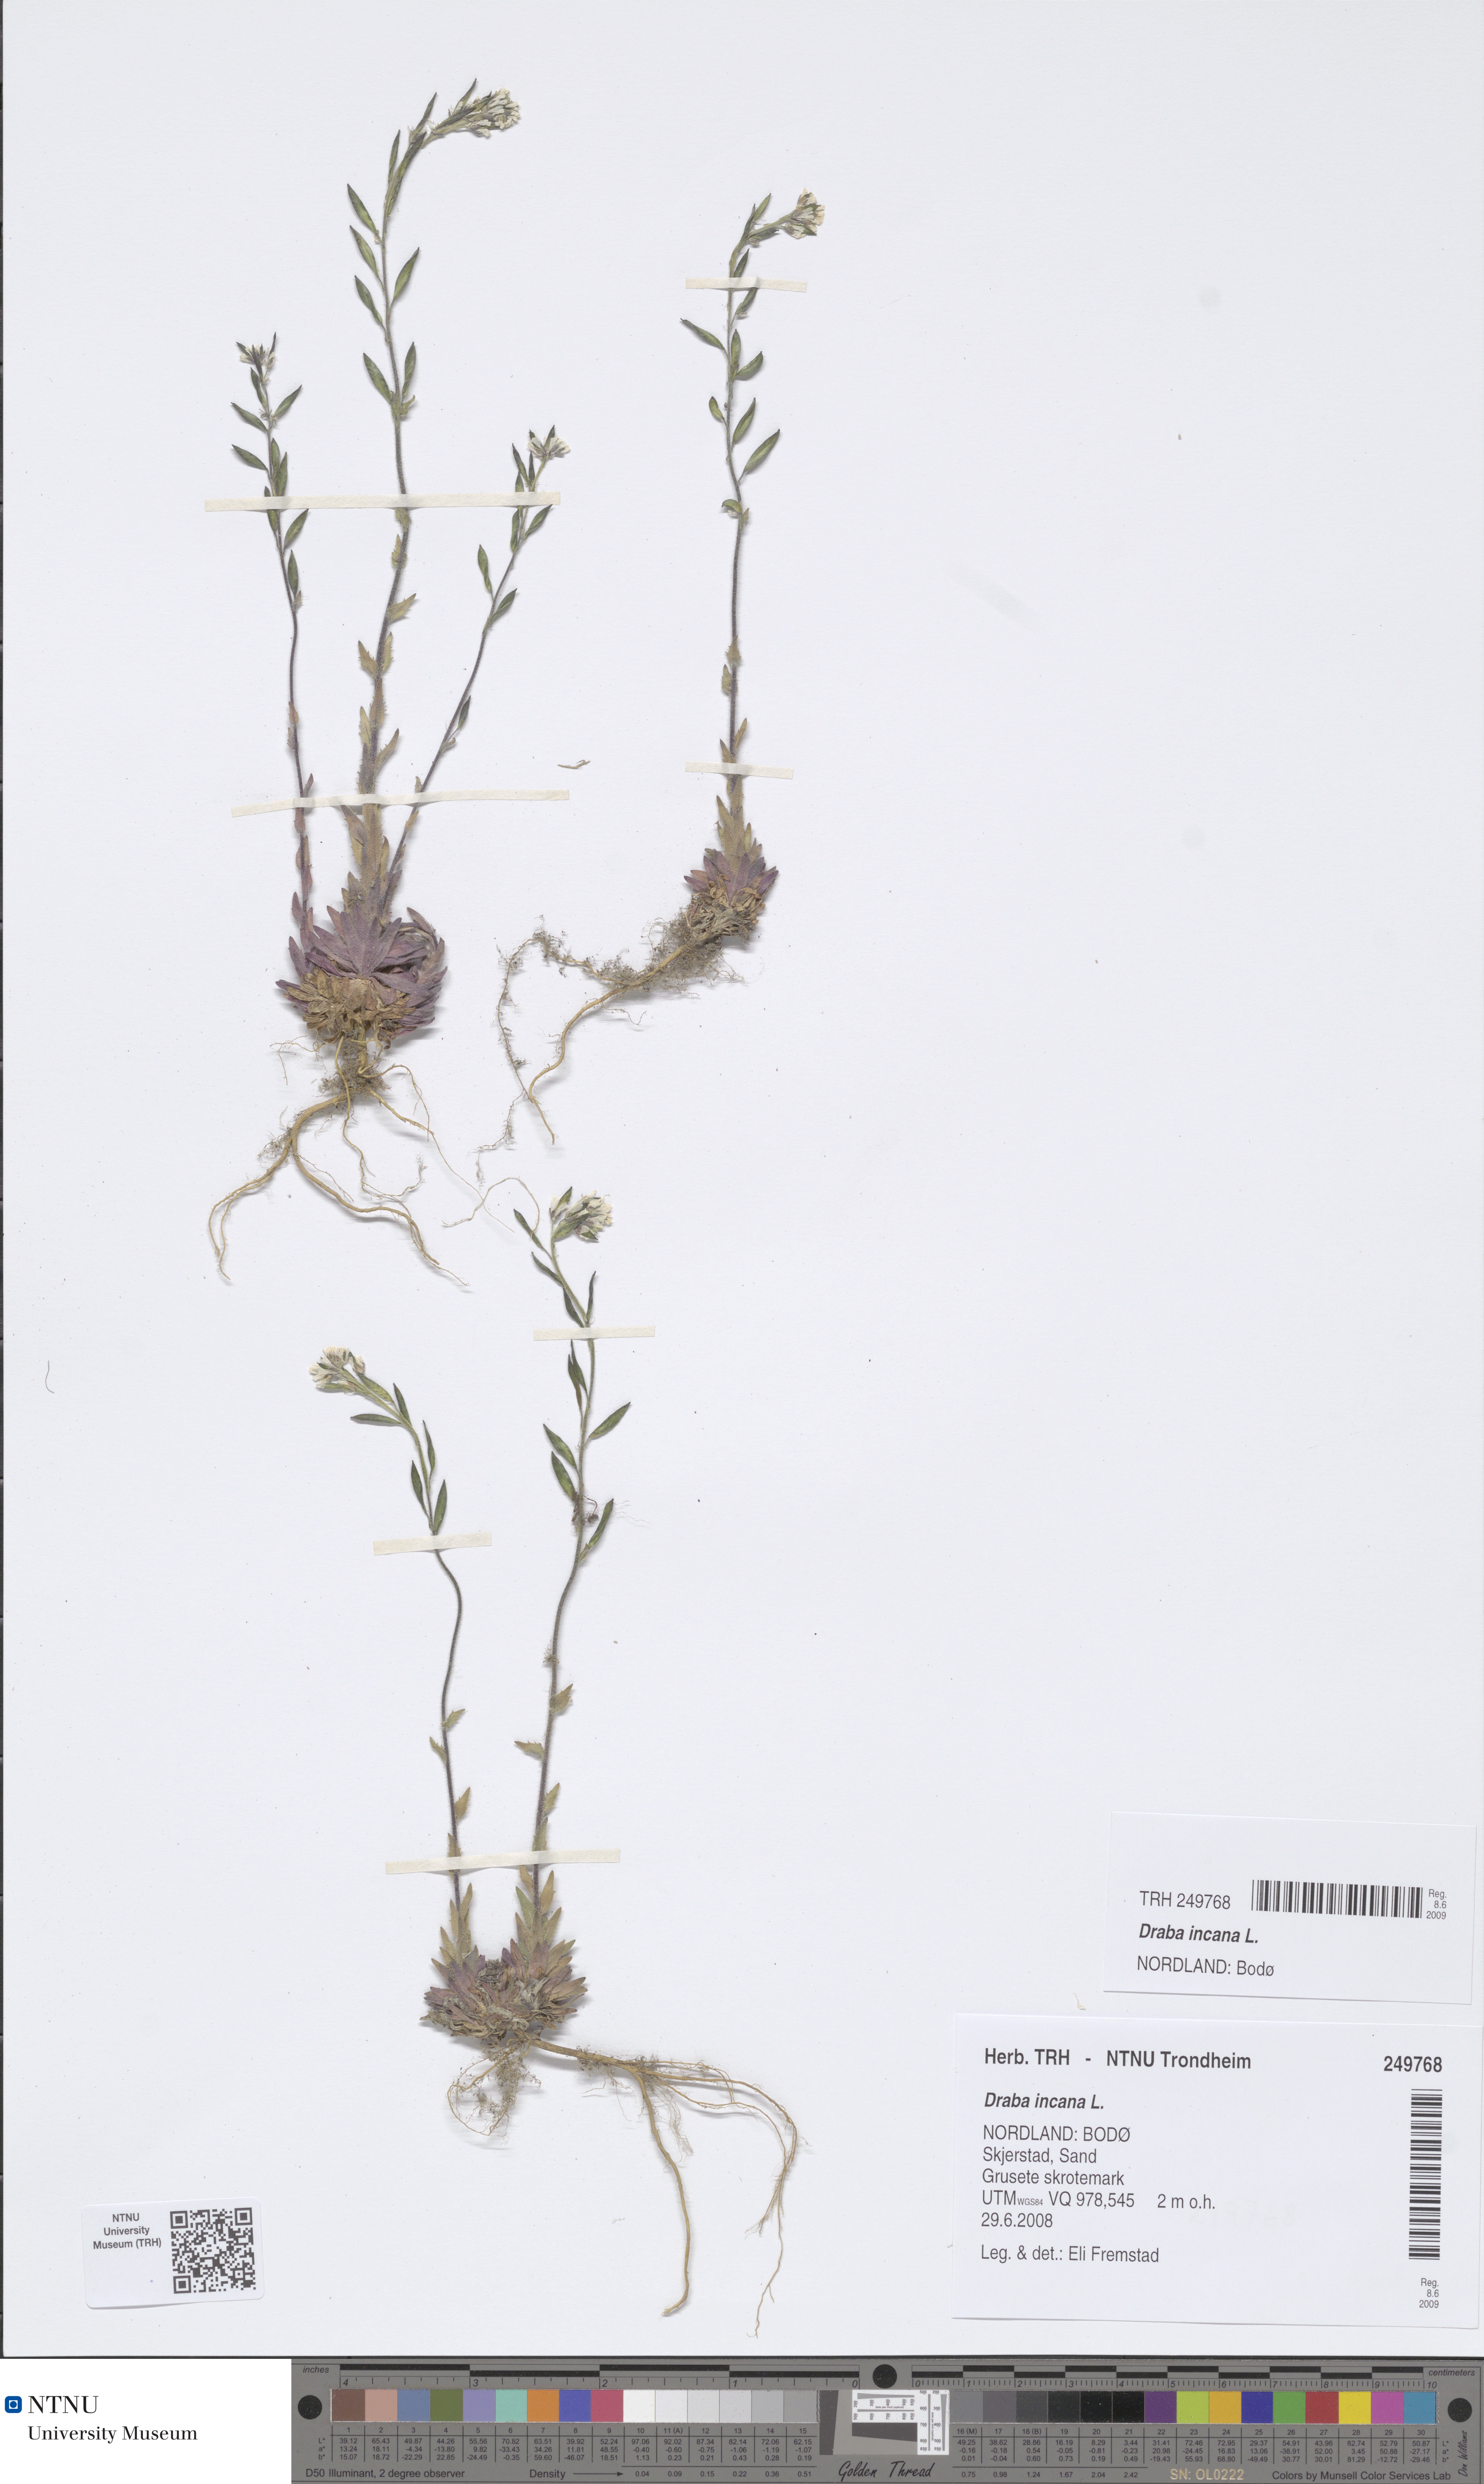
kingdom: Plantae
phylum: Tracheophyta
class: Magnoliopsida
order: Brassicales
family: Brassicaceae
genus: Draba
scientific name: Draba incana
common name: Hoary whitlow-grass
